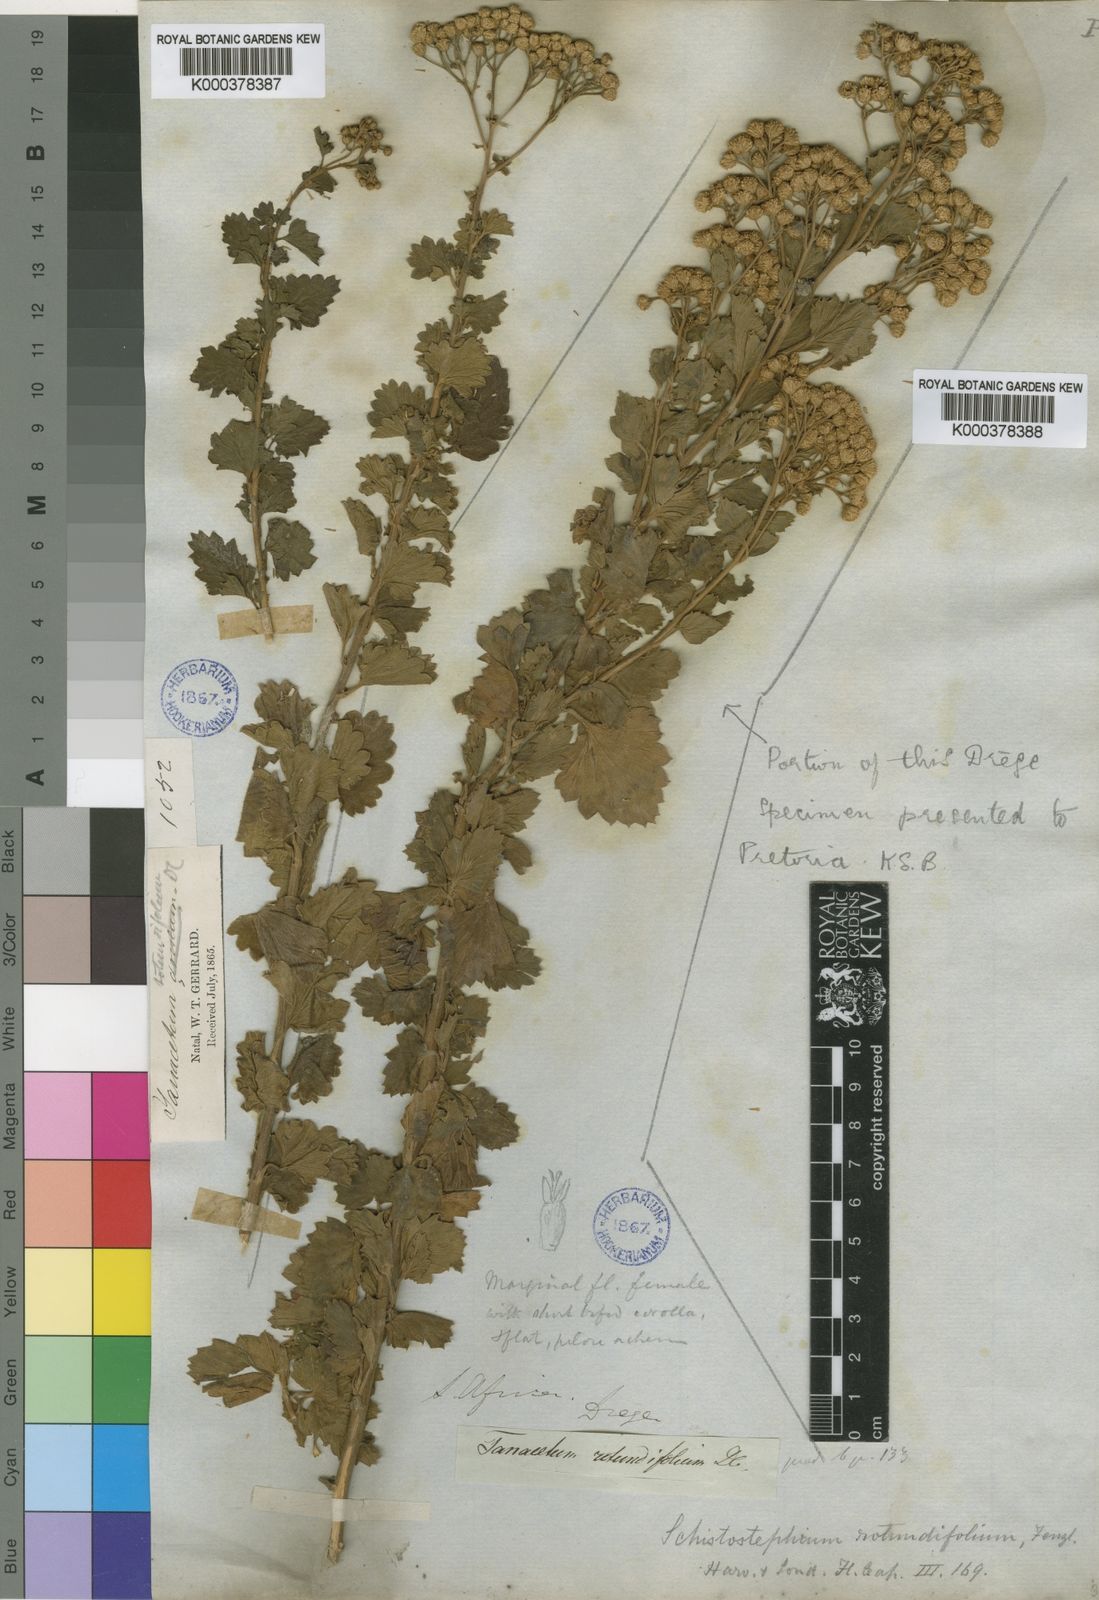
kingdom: Plantae
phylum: Tracheophyta
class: Magnoliopsida
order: Asterales
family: Asteraceae
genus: Schistostephium
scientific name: Schistostephium rotundifolium
